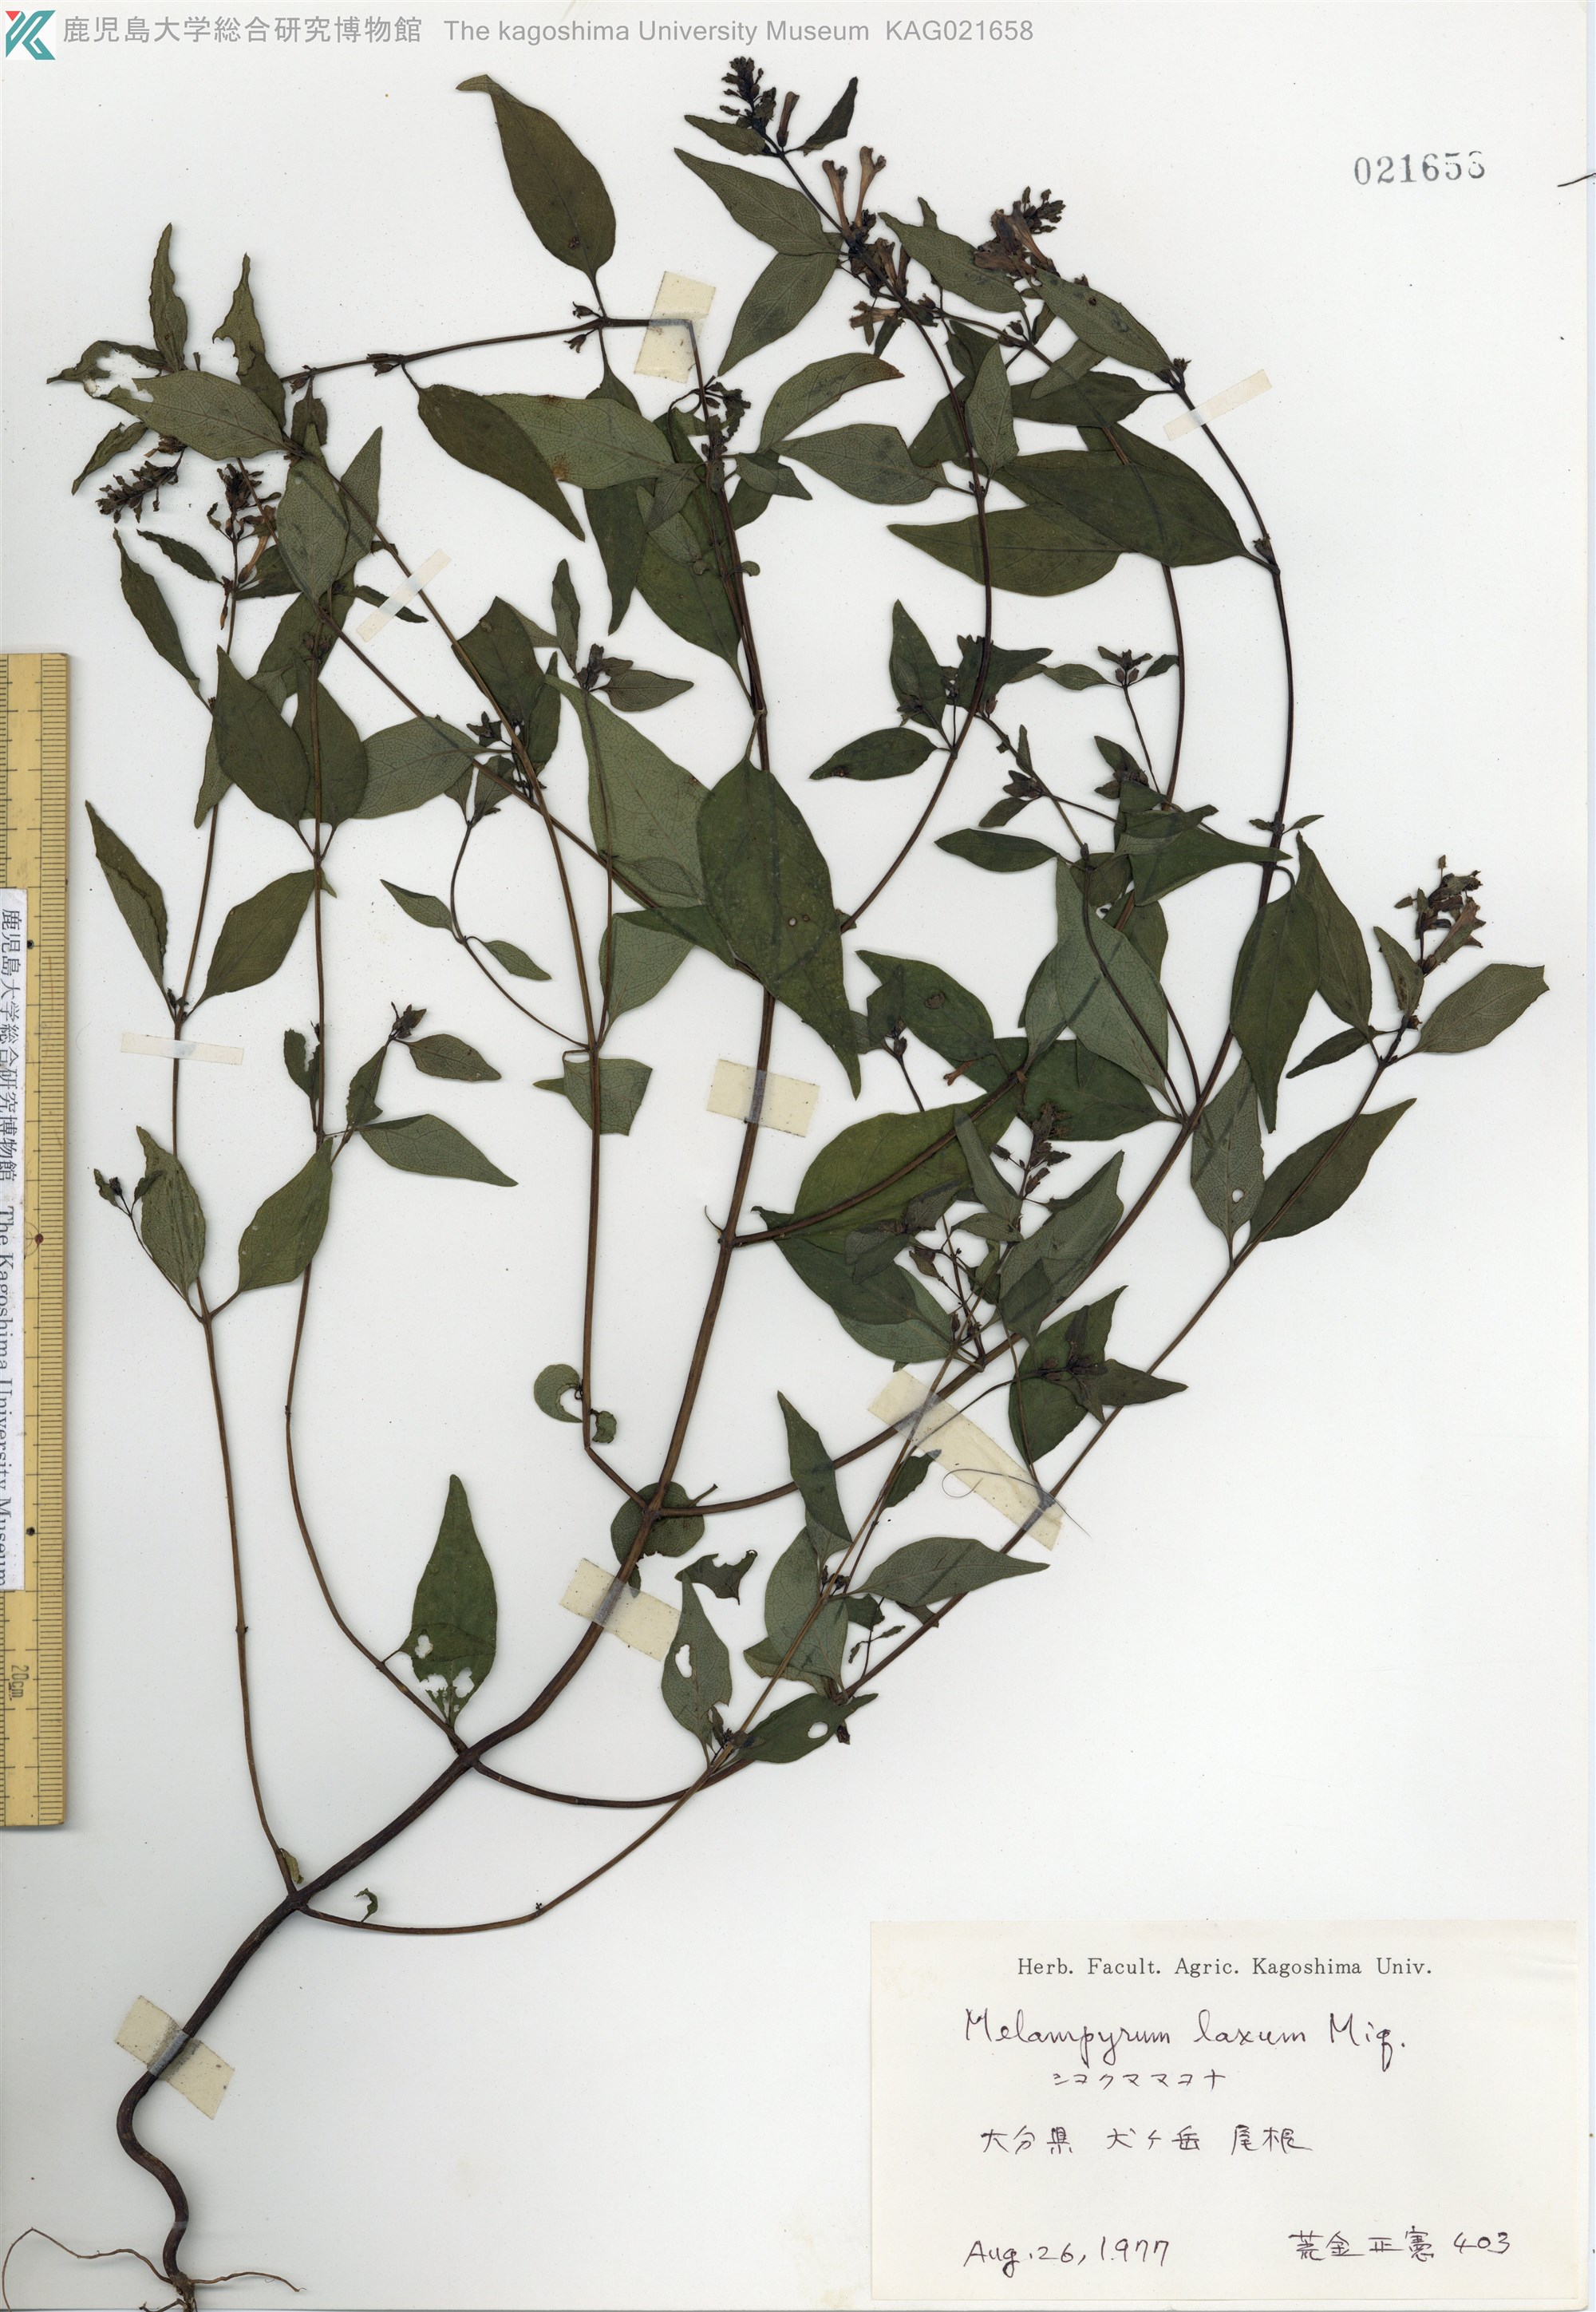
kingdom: Plantae
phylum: Tracheophyta
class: Magnoliopsida
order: Lamiales
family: Orobanchaceae
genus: Melampyrum
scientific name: Melampyrum laxum
